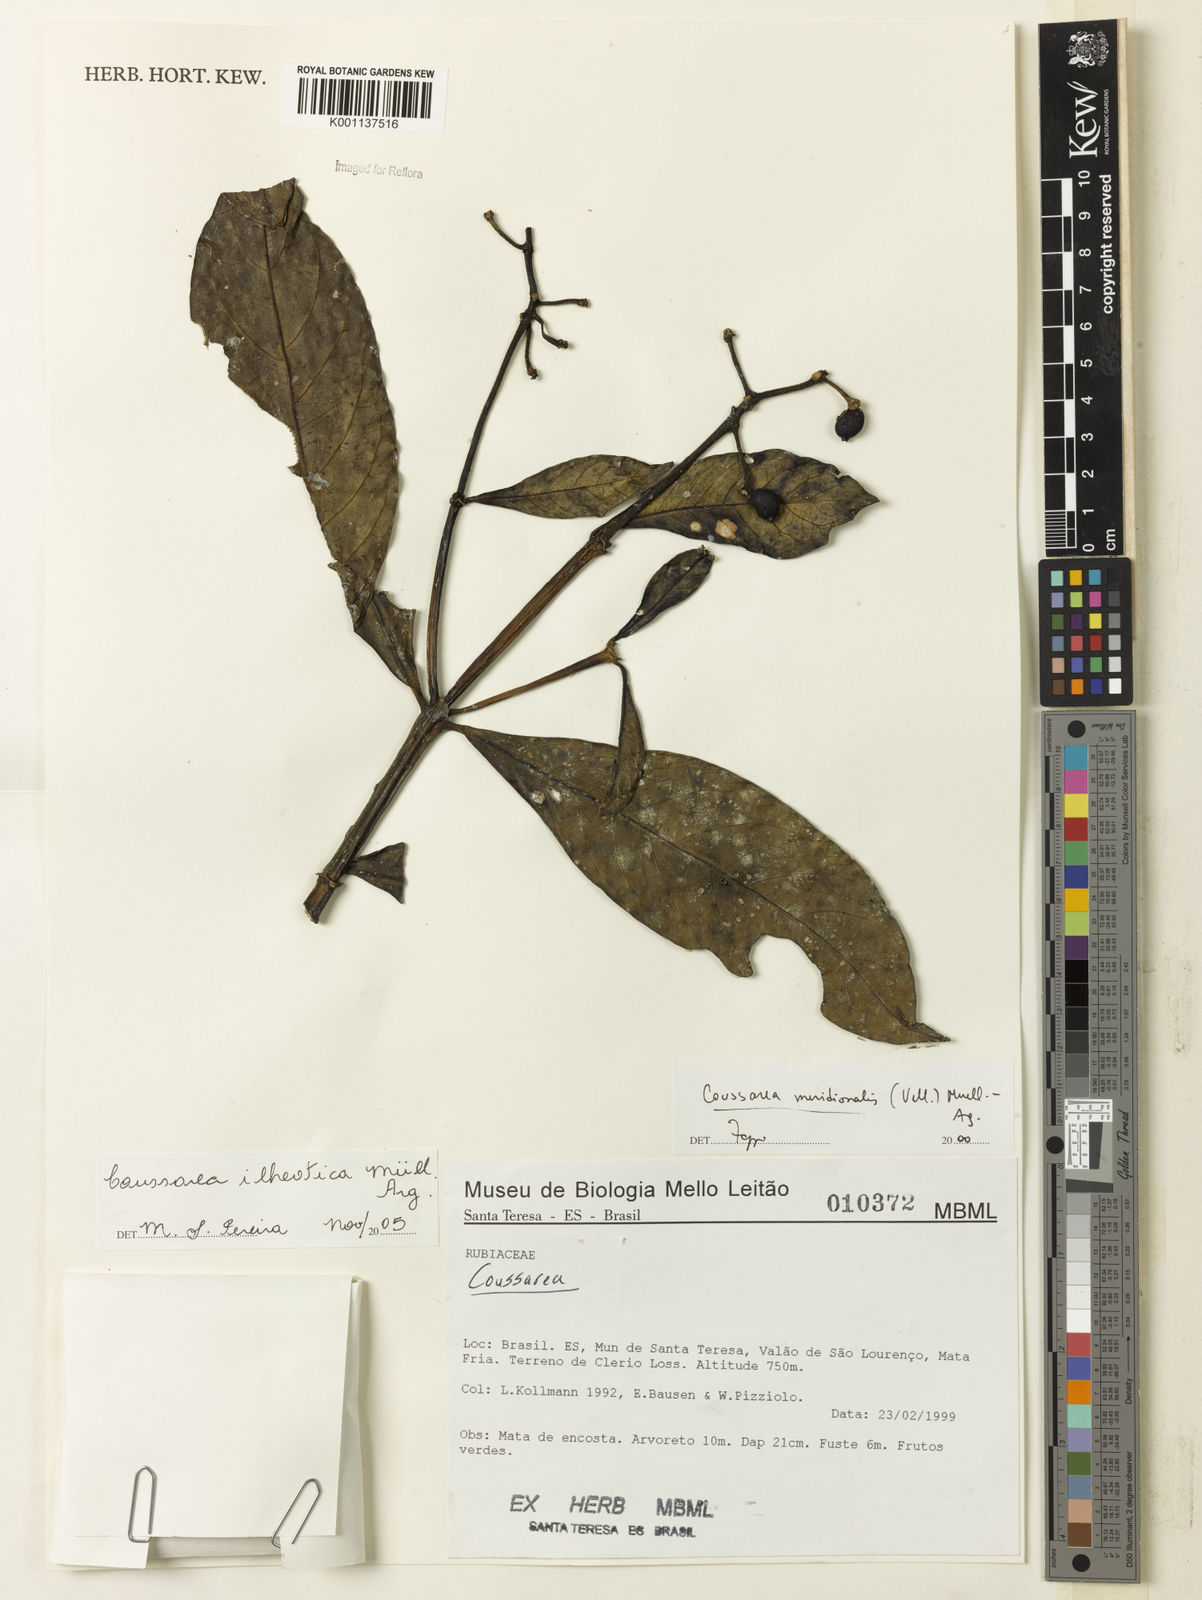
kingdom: Plantae
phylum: Tracheophyta
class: Magnoliopsida
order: Gentianales
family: Rubiaceae
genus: Coussarea
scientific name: Coussarea
